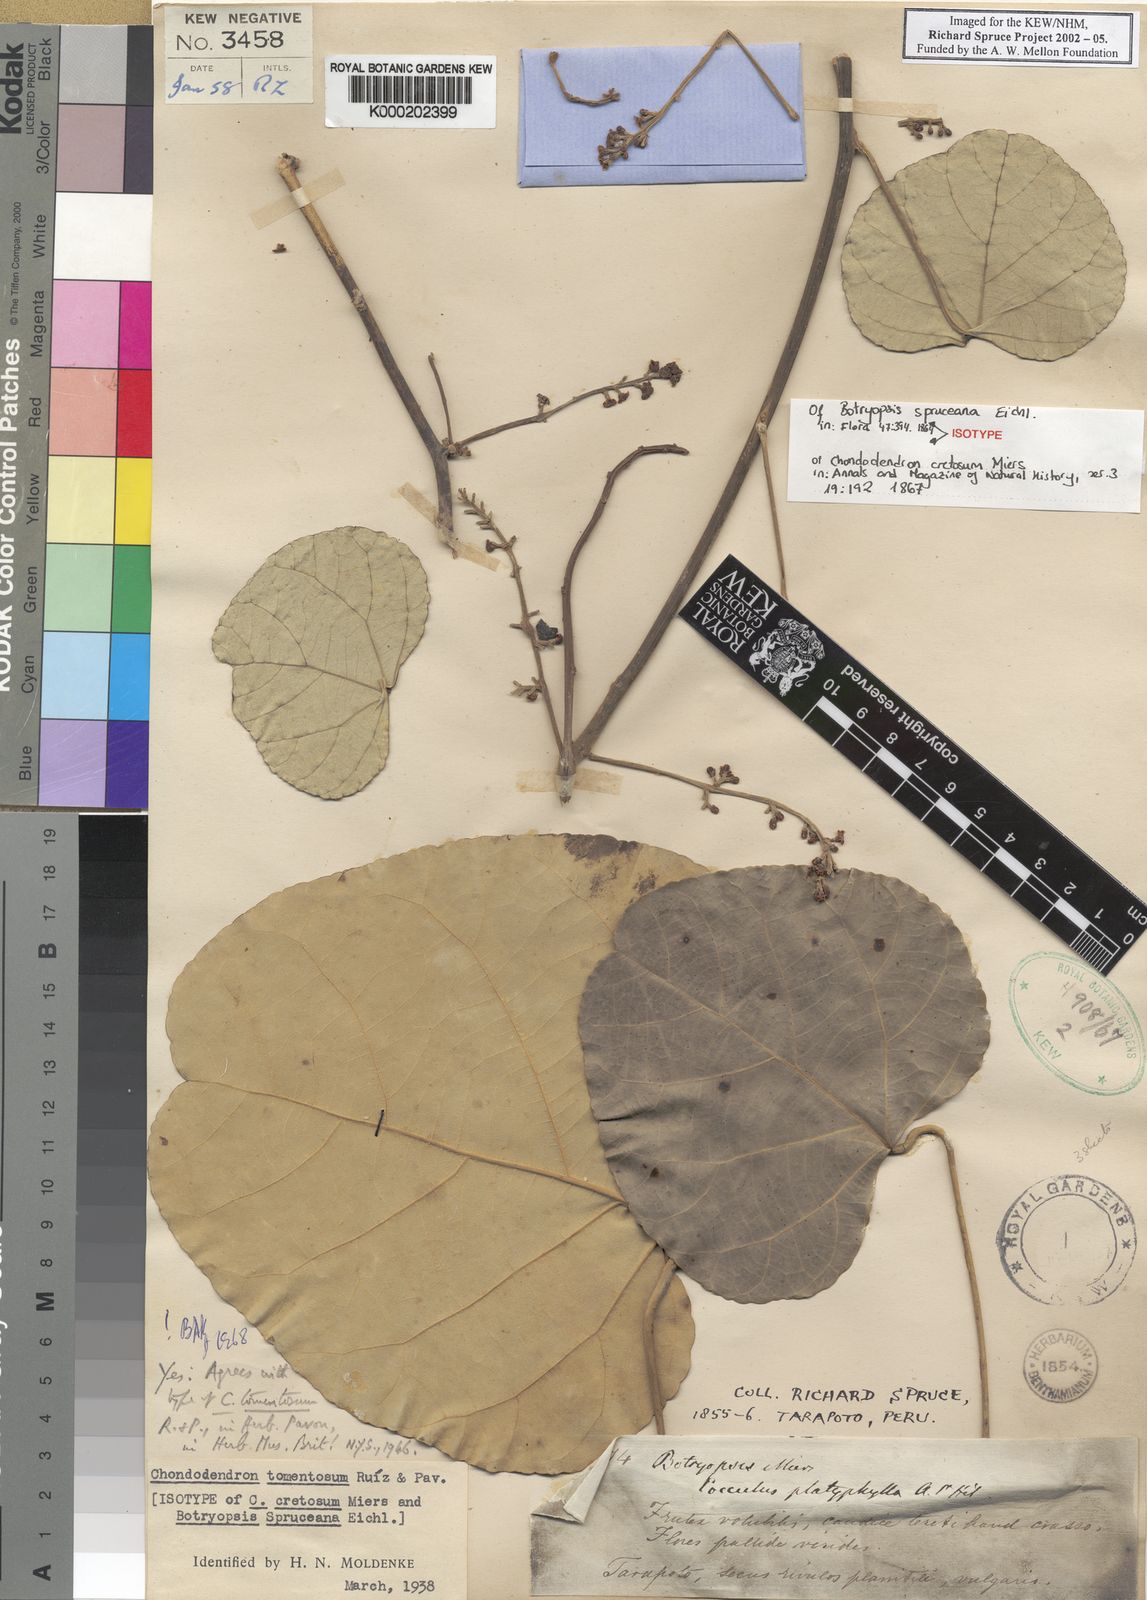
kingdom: Plantae
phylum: Tracheophyta
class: Magnoliopsida
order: Ranunculales
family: Menispermaceae
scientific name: Menispermaceae
